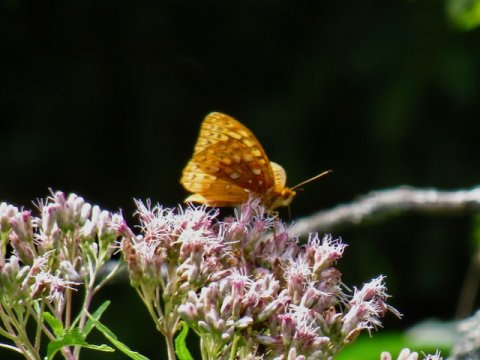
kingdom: Animalia
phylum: Arthropoda
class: Insecta
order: Lepidoptera
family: Nymphalidae
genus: Speyeria
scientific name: Speyeria cybele
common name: Great Spangled Fritillary
